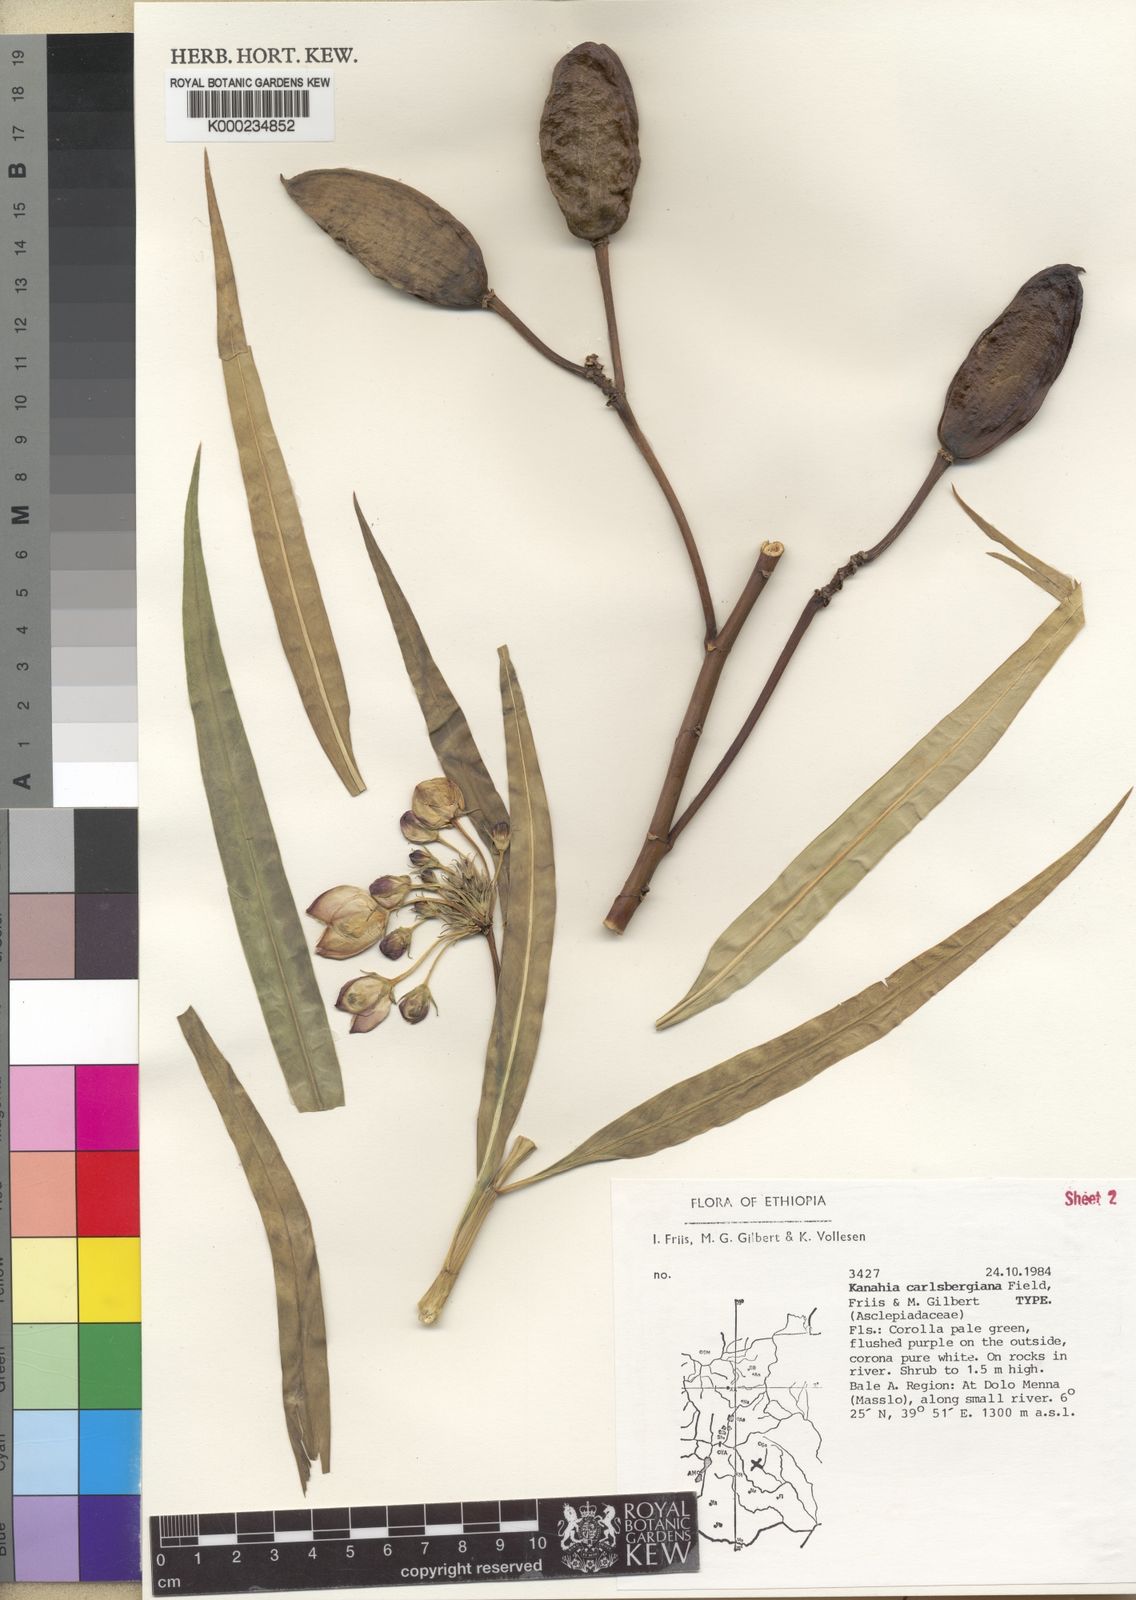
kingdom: Plantae
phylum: Tracheophyta
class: Magnoliopsida
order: Gentianales
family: Apocynaceae
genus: Kanahia
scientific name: Kanahia carlsbergiana
